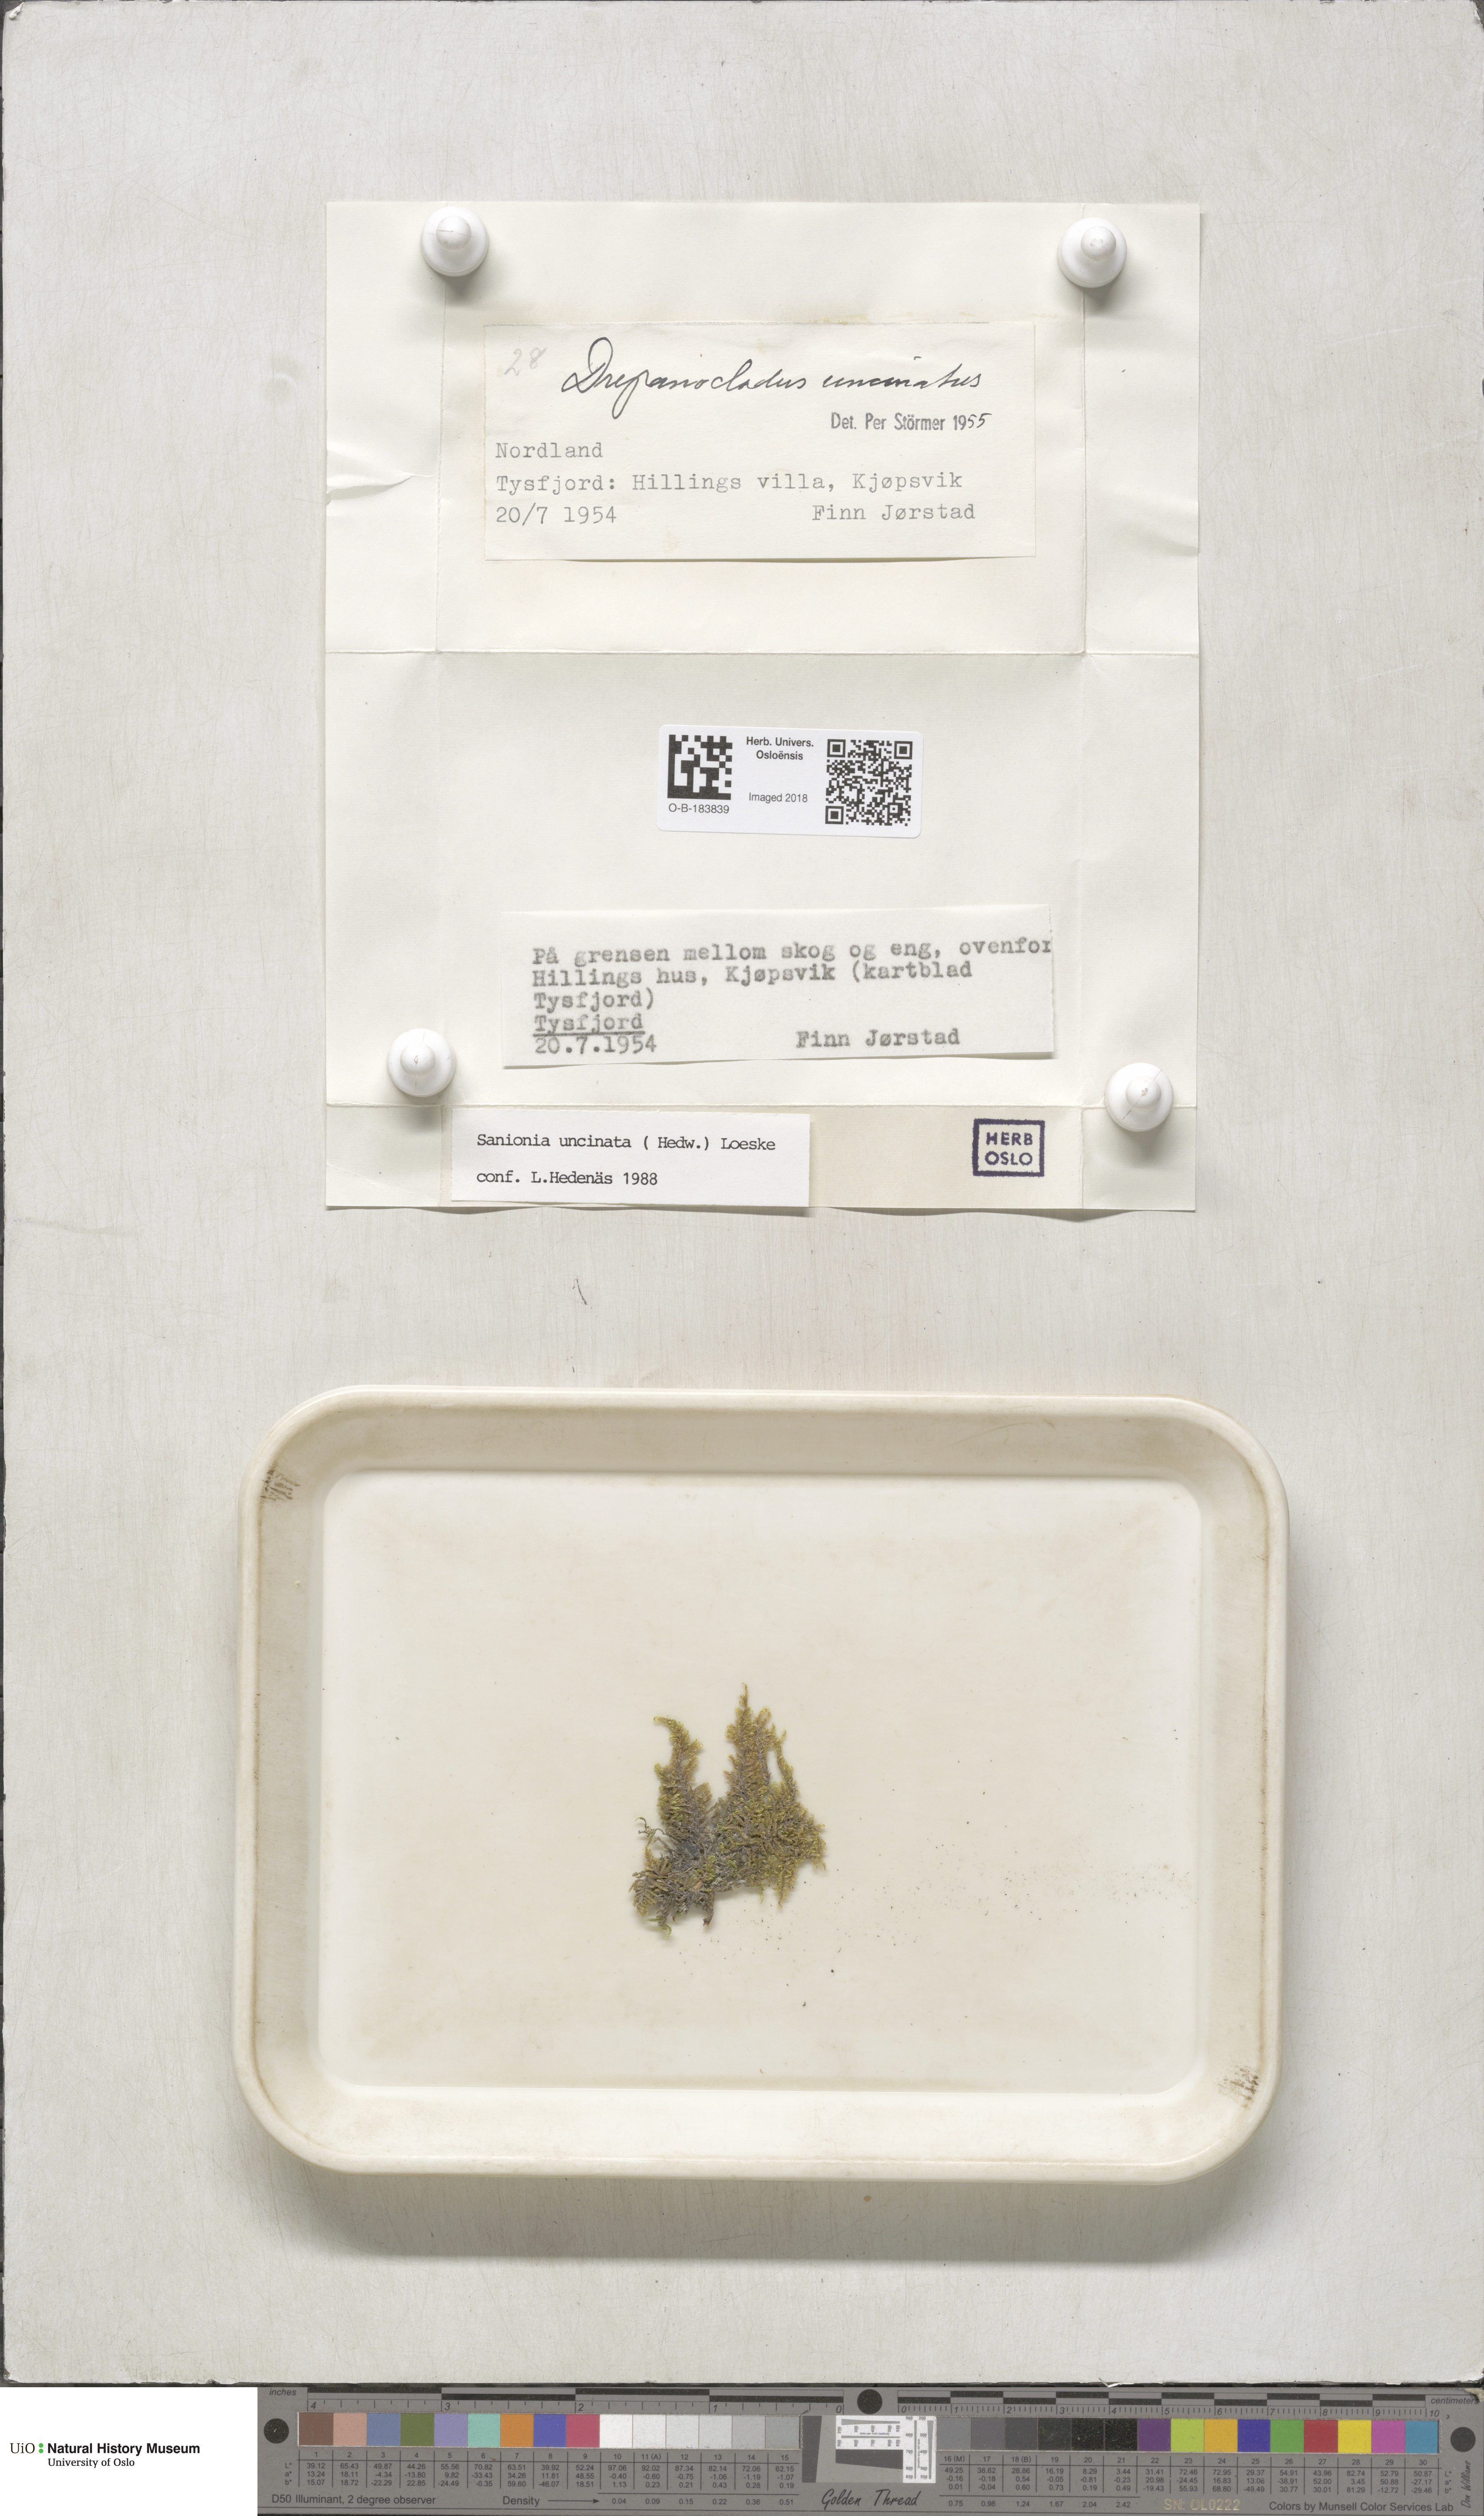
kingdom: Plantae
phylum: Bryophyta
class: Bryopsida
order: Hypnales
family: Scorpidiaceae
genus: Sanionia
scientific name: Sanionia uncinata
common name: Sickle moss
